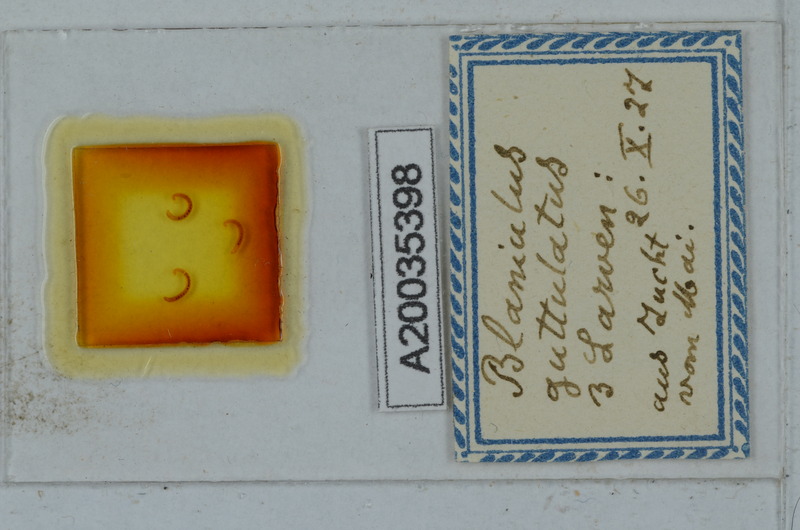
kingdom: Animalia
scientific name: Animalia
